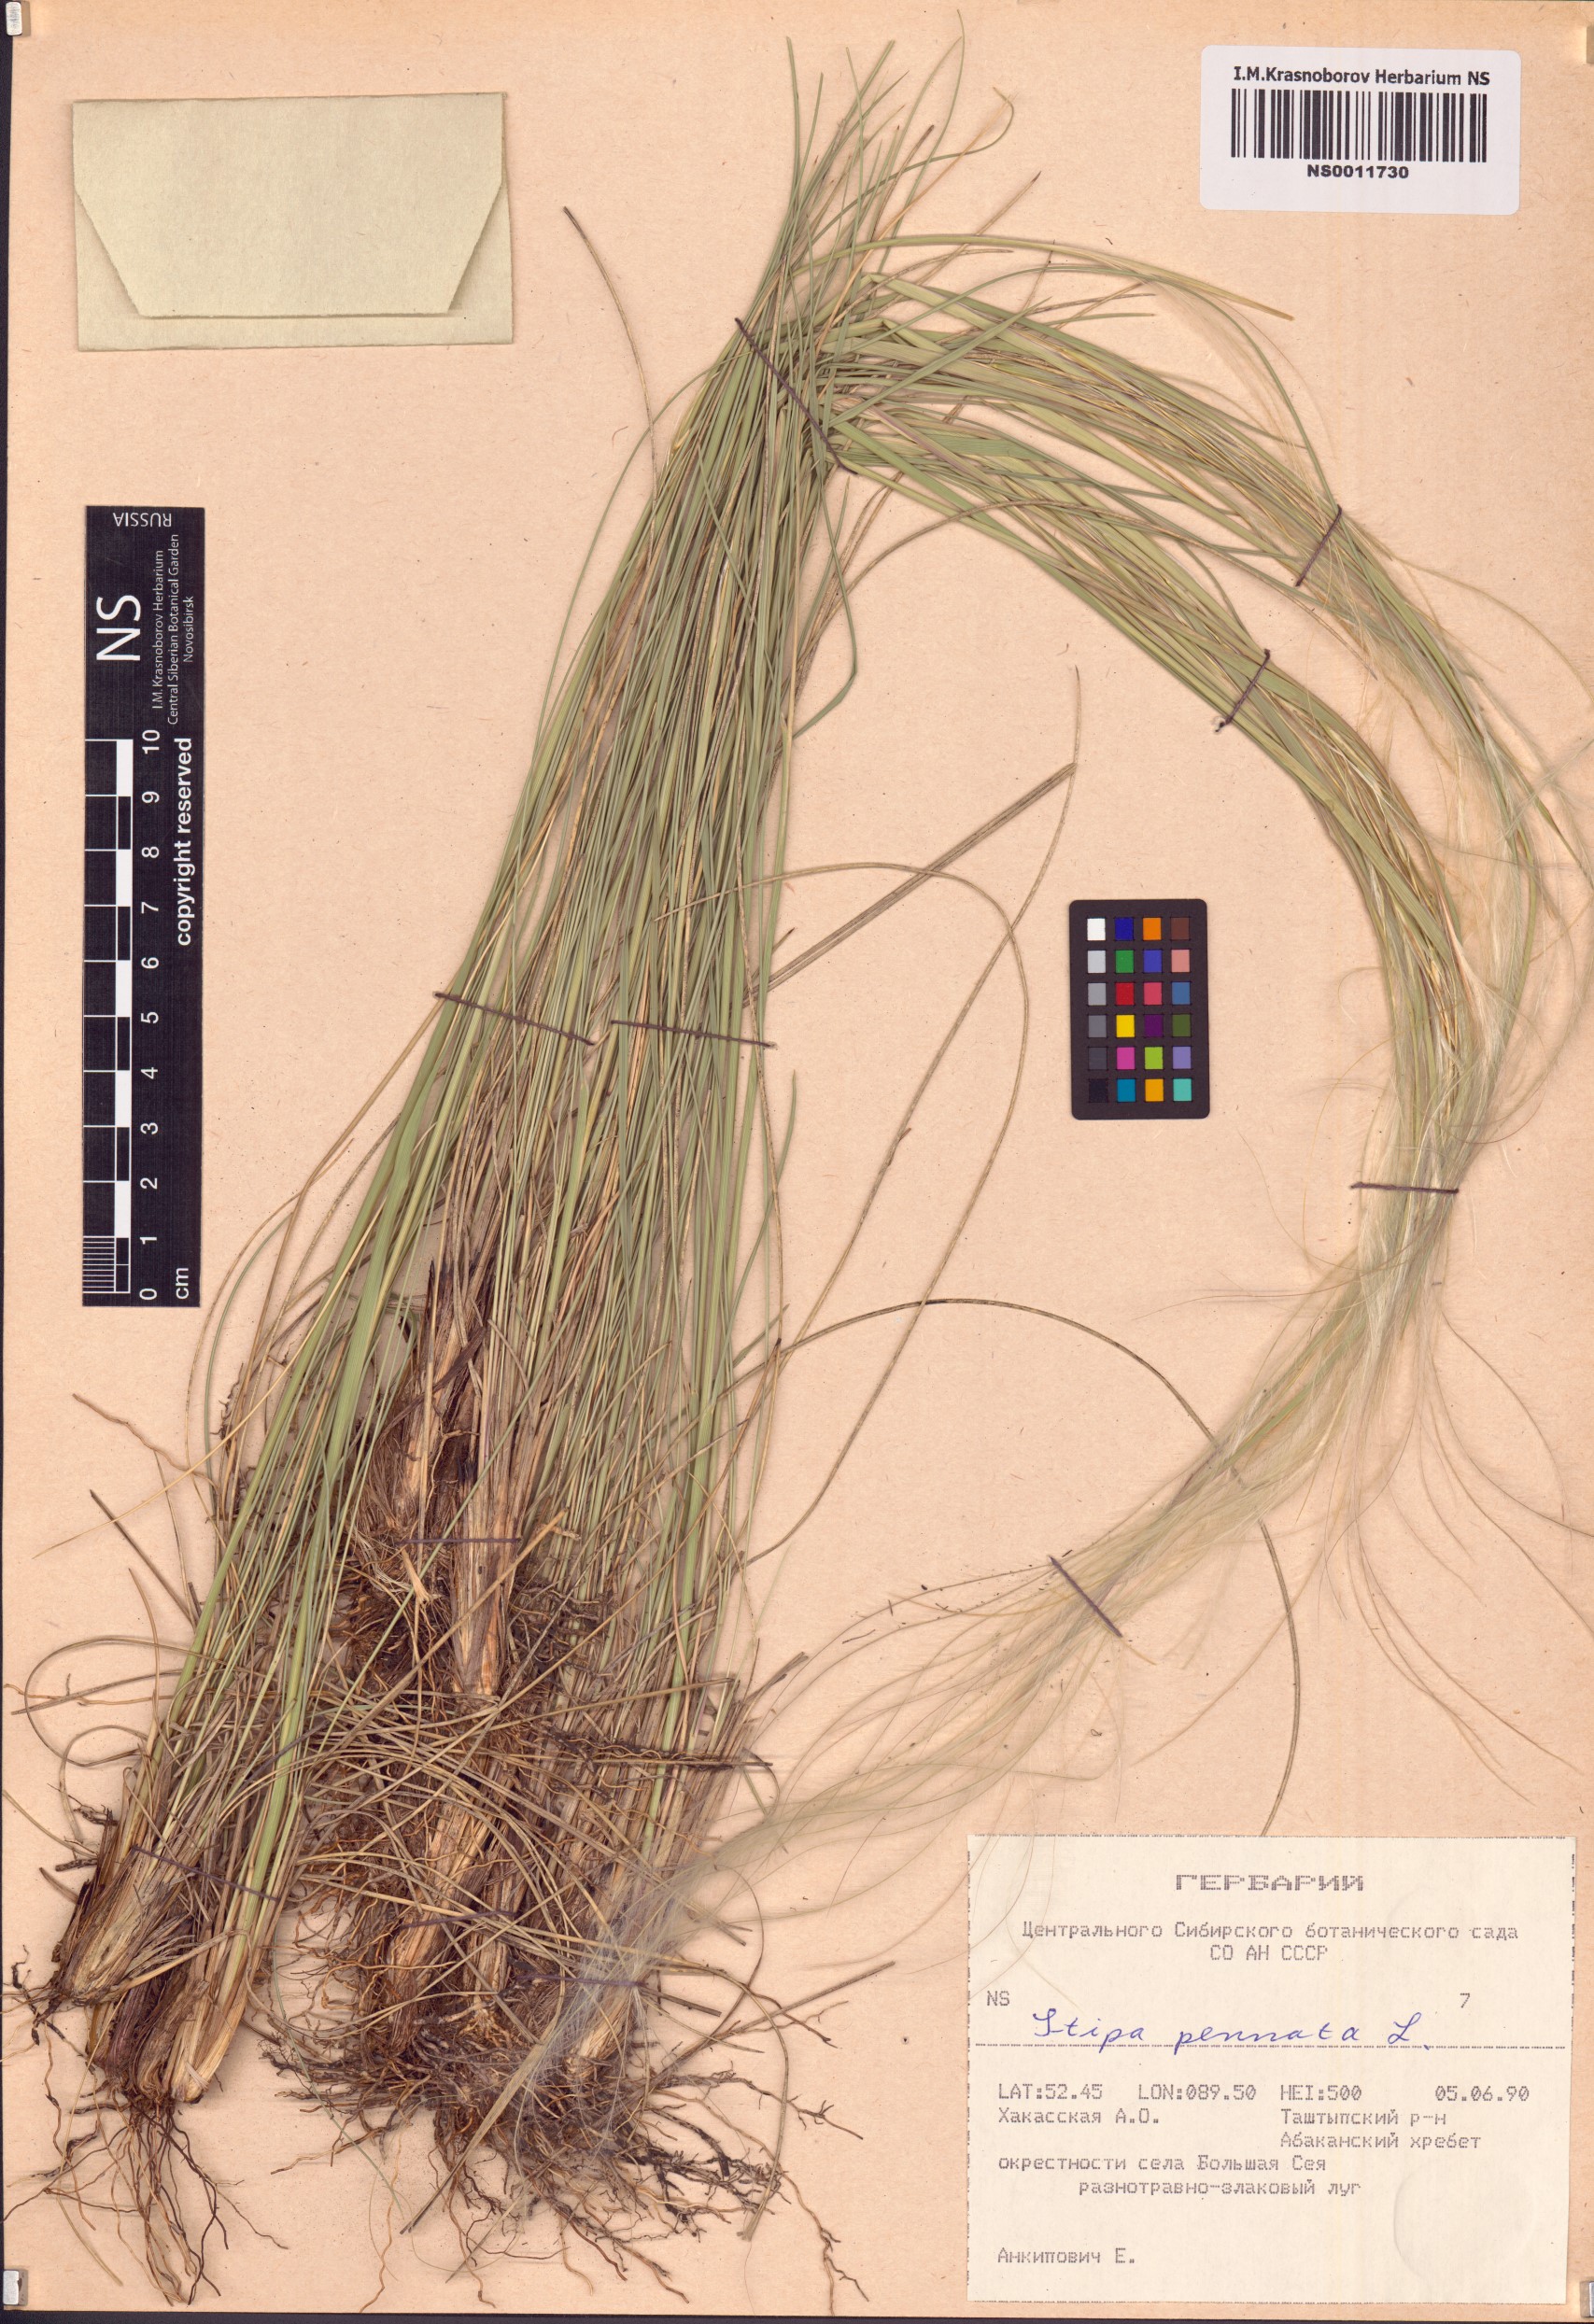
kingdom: Plantae
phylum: Tracheophyta
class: Liliopsida
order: Poales
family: Poaceae
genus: Stipa
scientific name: Stipa pennata
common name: European feather grass
